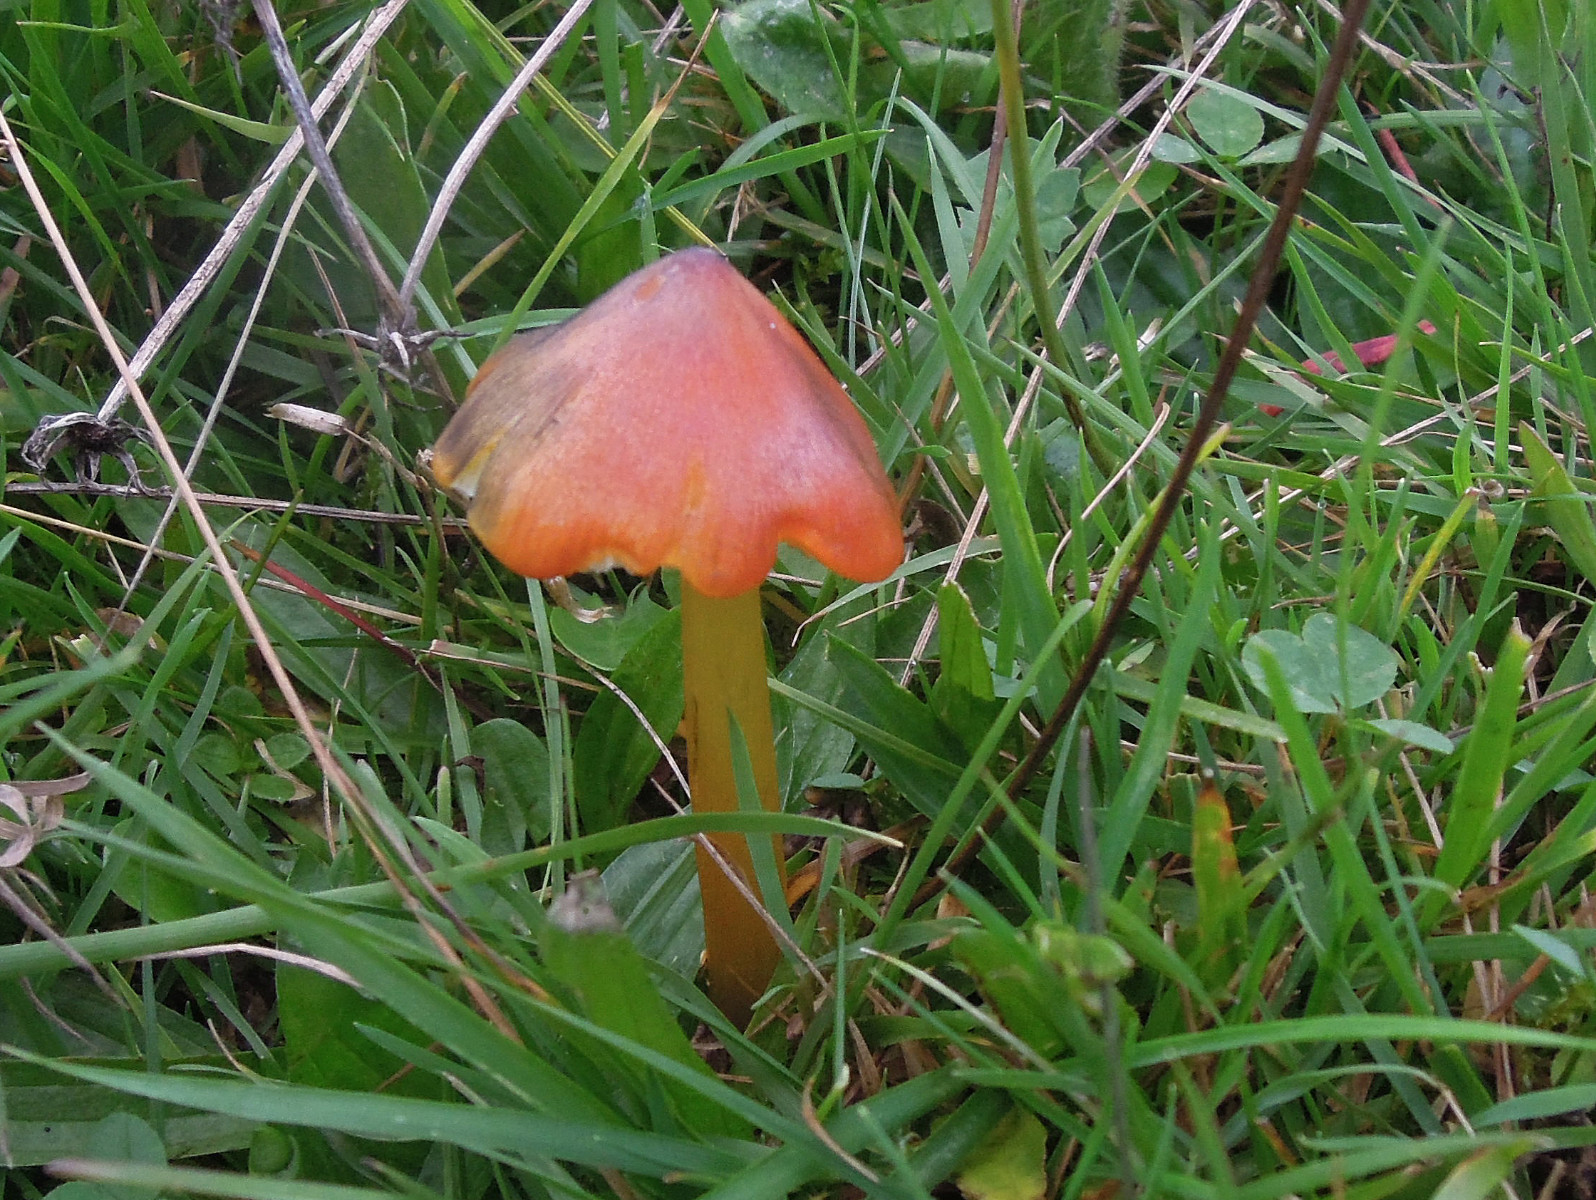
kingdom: Fungi
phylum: Basidiomycota
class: Agaricomycetes
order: Agaricales
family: Hygrophoraceae
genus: Hygrocybe
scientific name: Hygrocybe conica
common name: kegle-vokshat
